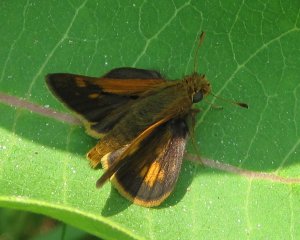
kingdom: Animalia
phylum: Arthropoda
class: Insecta
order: Lepidoptera
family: Hesperiidae
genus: Polites
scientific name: Polites coras
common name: Peck's Skipper
